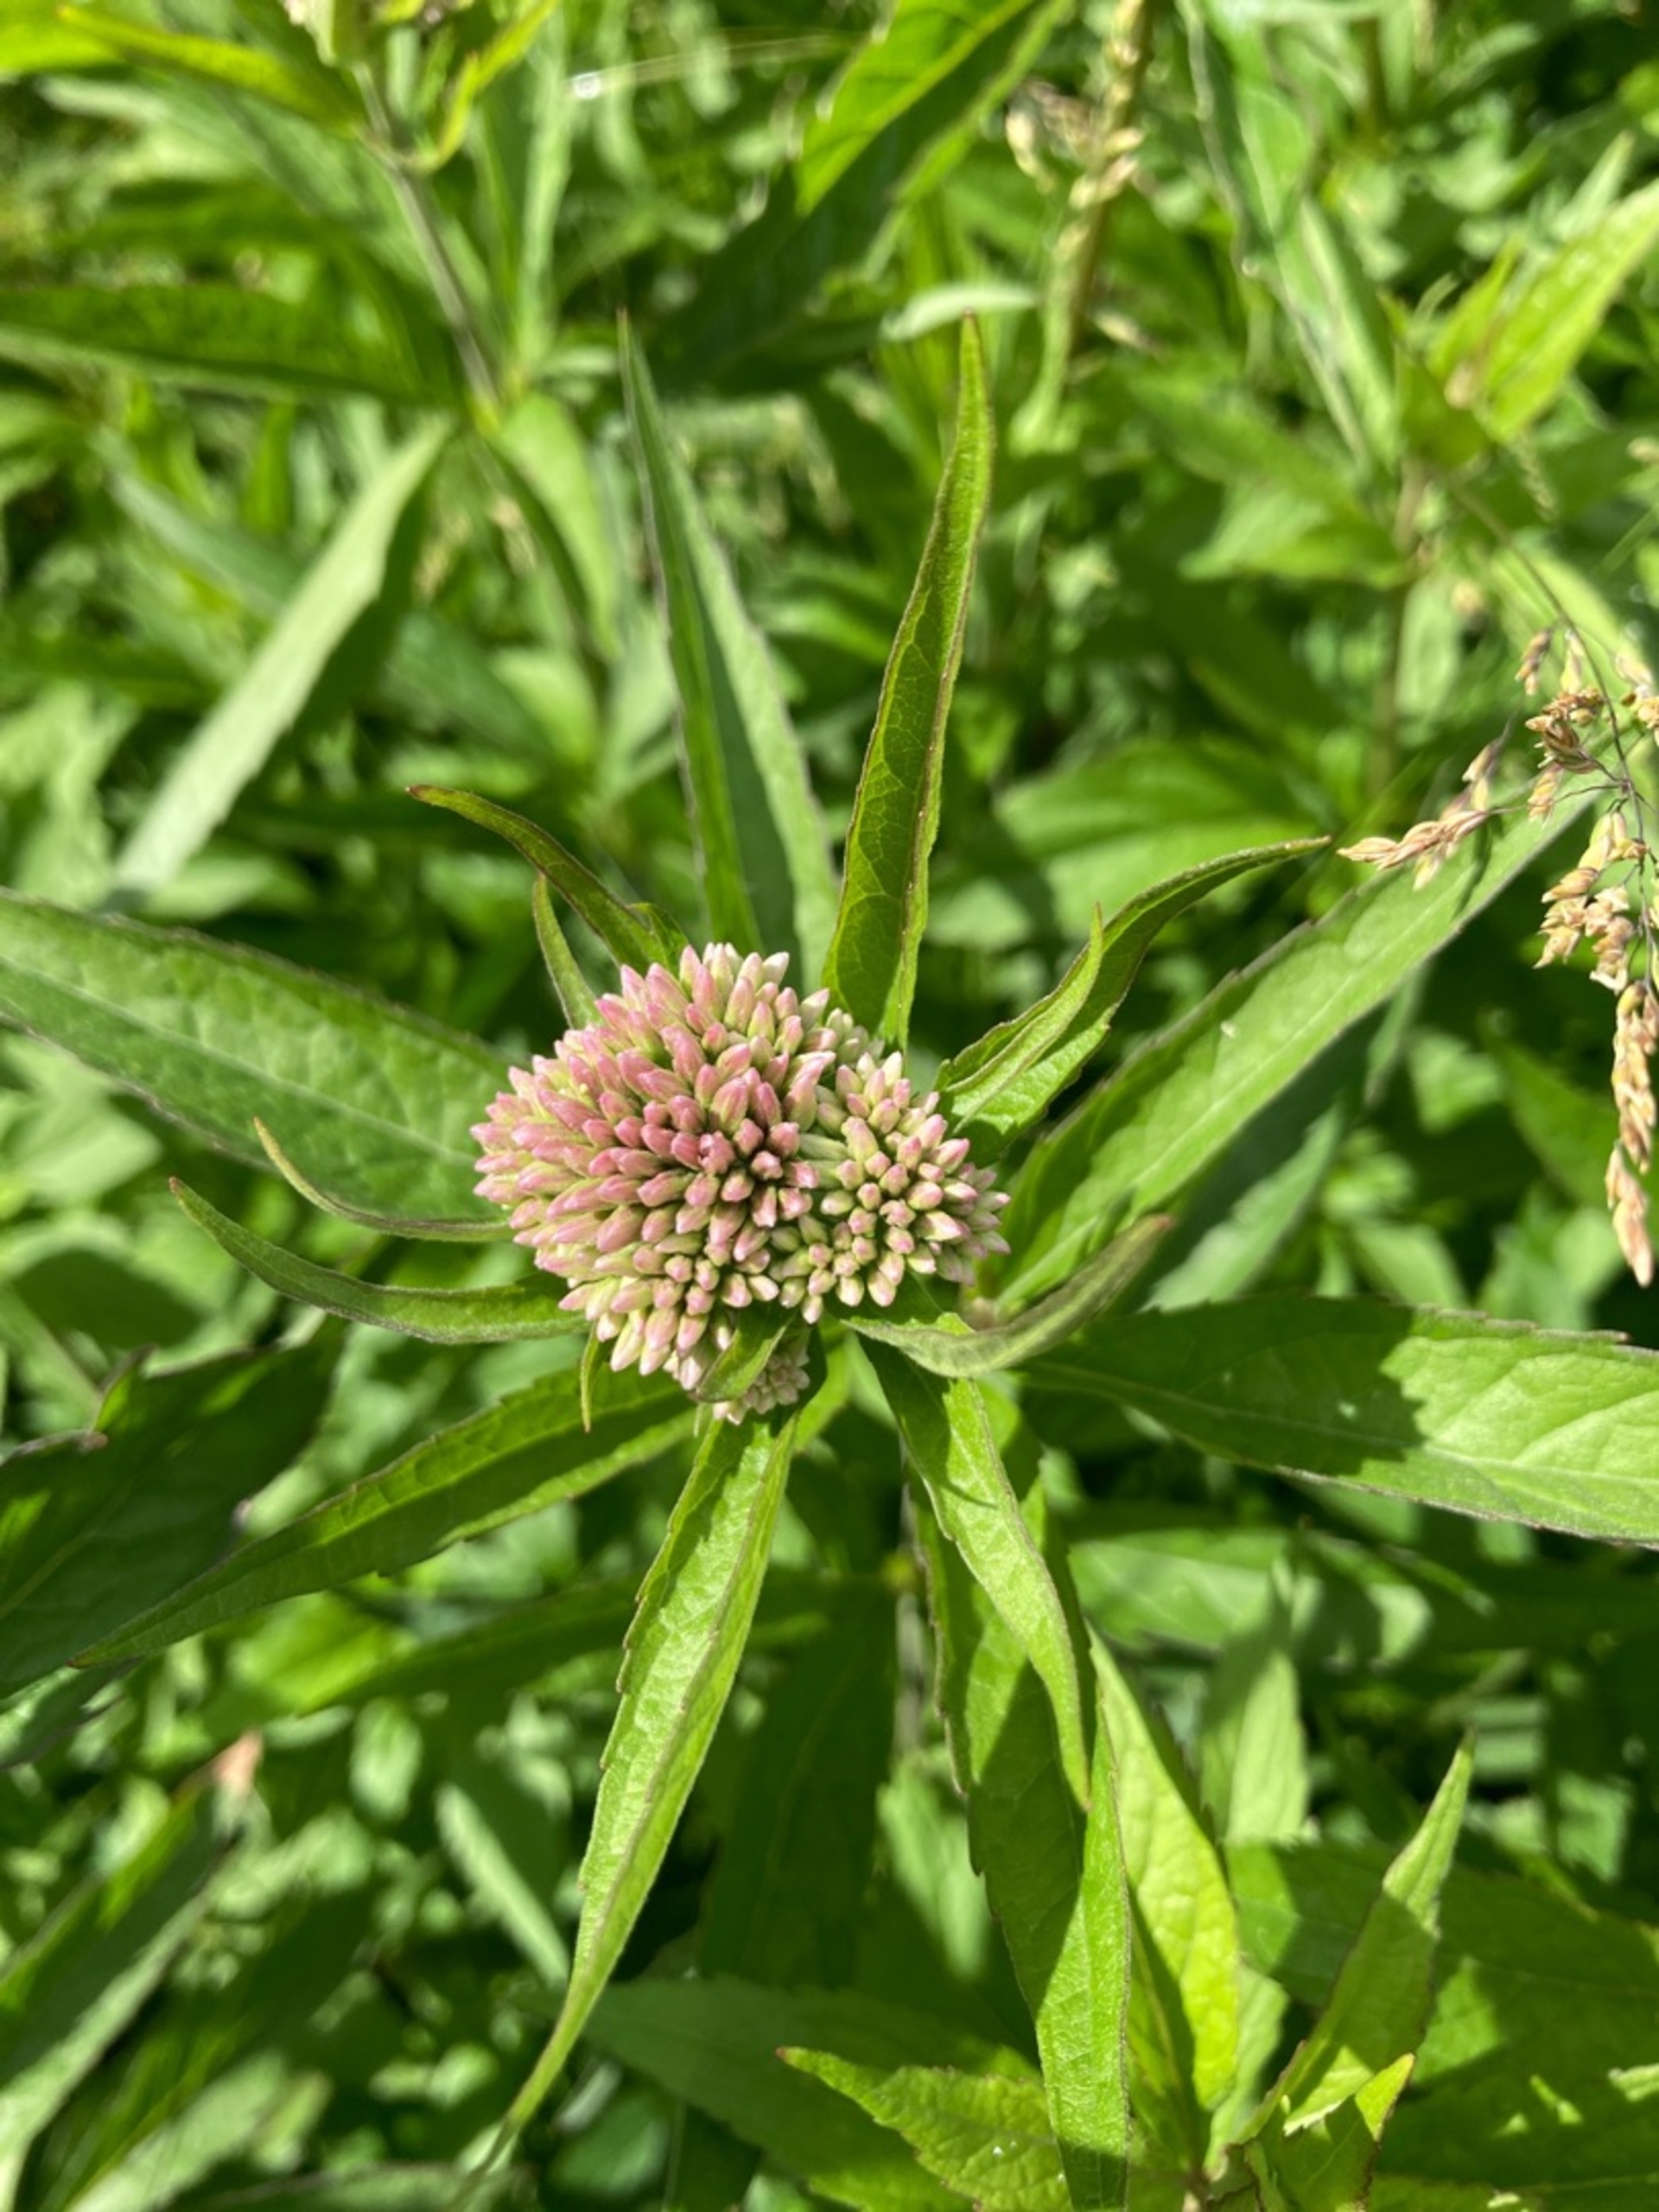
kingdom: Plantae
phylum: Tracheophyta
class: Magnoliopsida
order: Asterales
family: Asteraceae
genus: Eupatorium
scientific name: Eupatorium cannabinum
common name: Hjortetrøst
